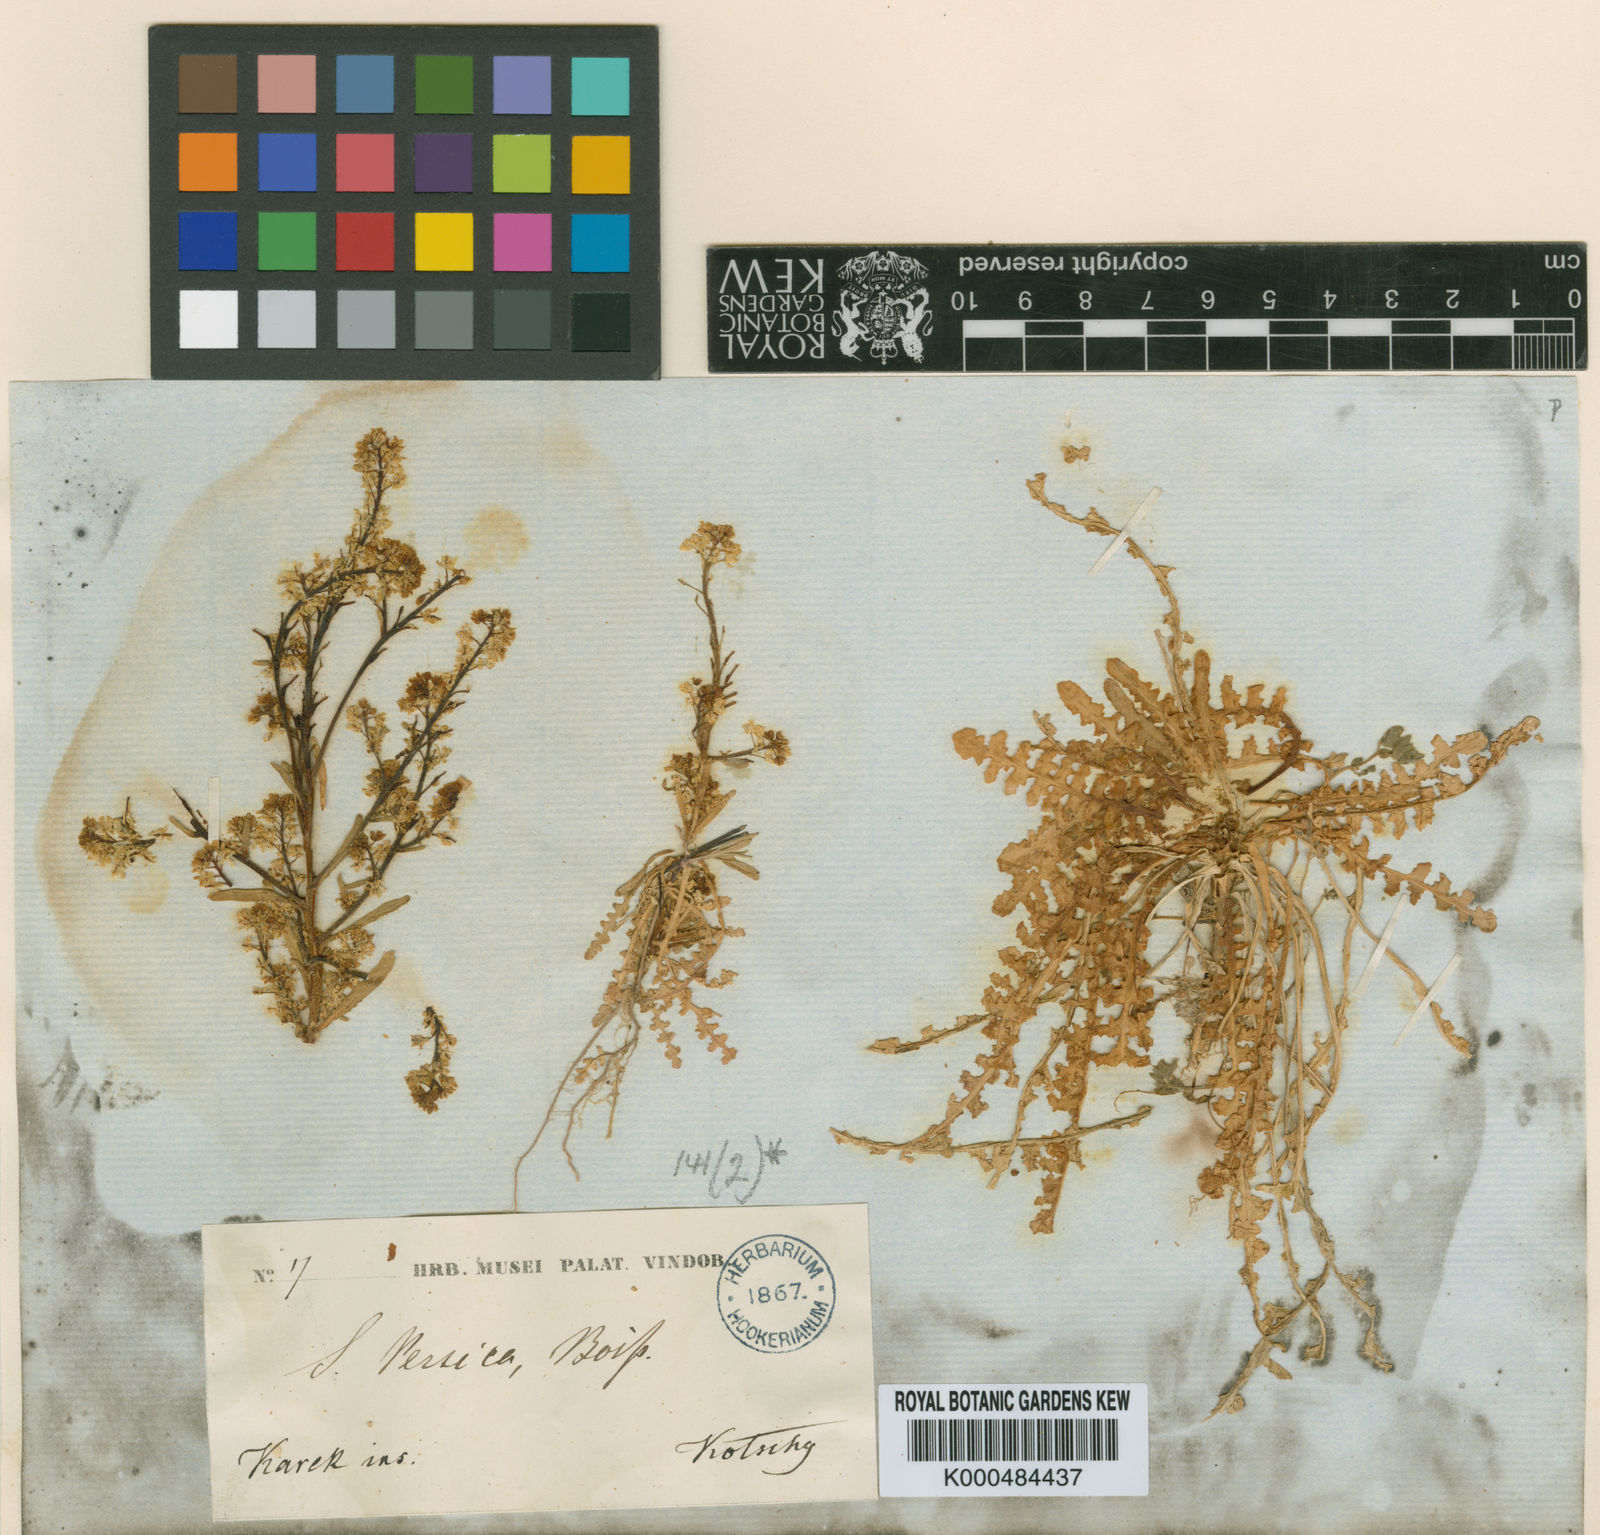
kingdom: Plantae
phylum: Tracheophyta
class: Magnoliopsida
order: Brassicales
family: Brassicaceae
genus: Schimpera
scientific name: Schimpera arabica
